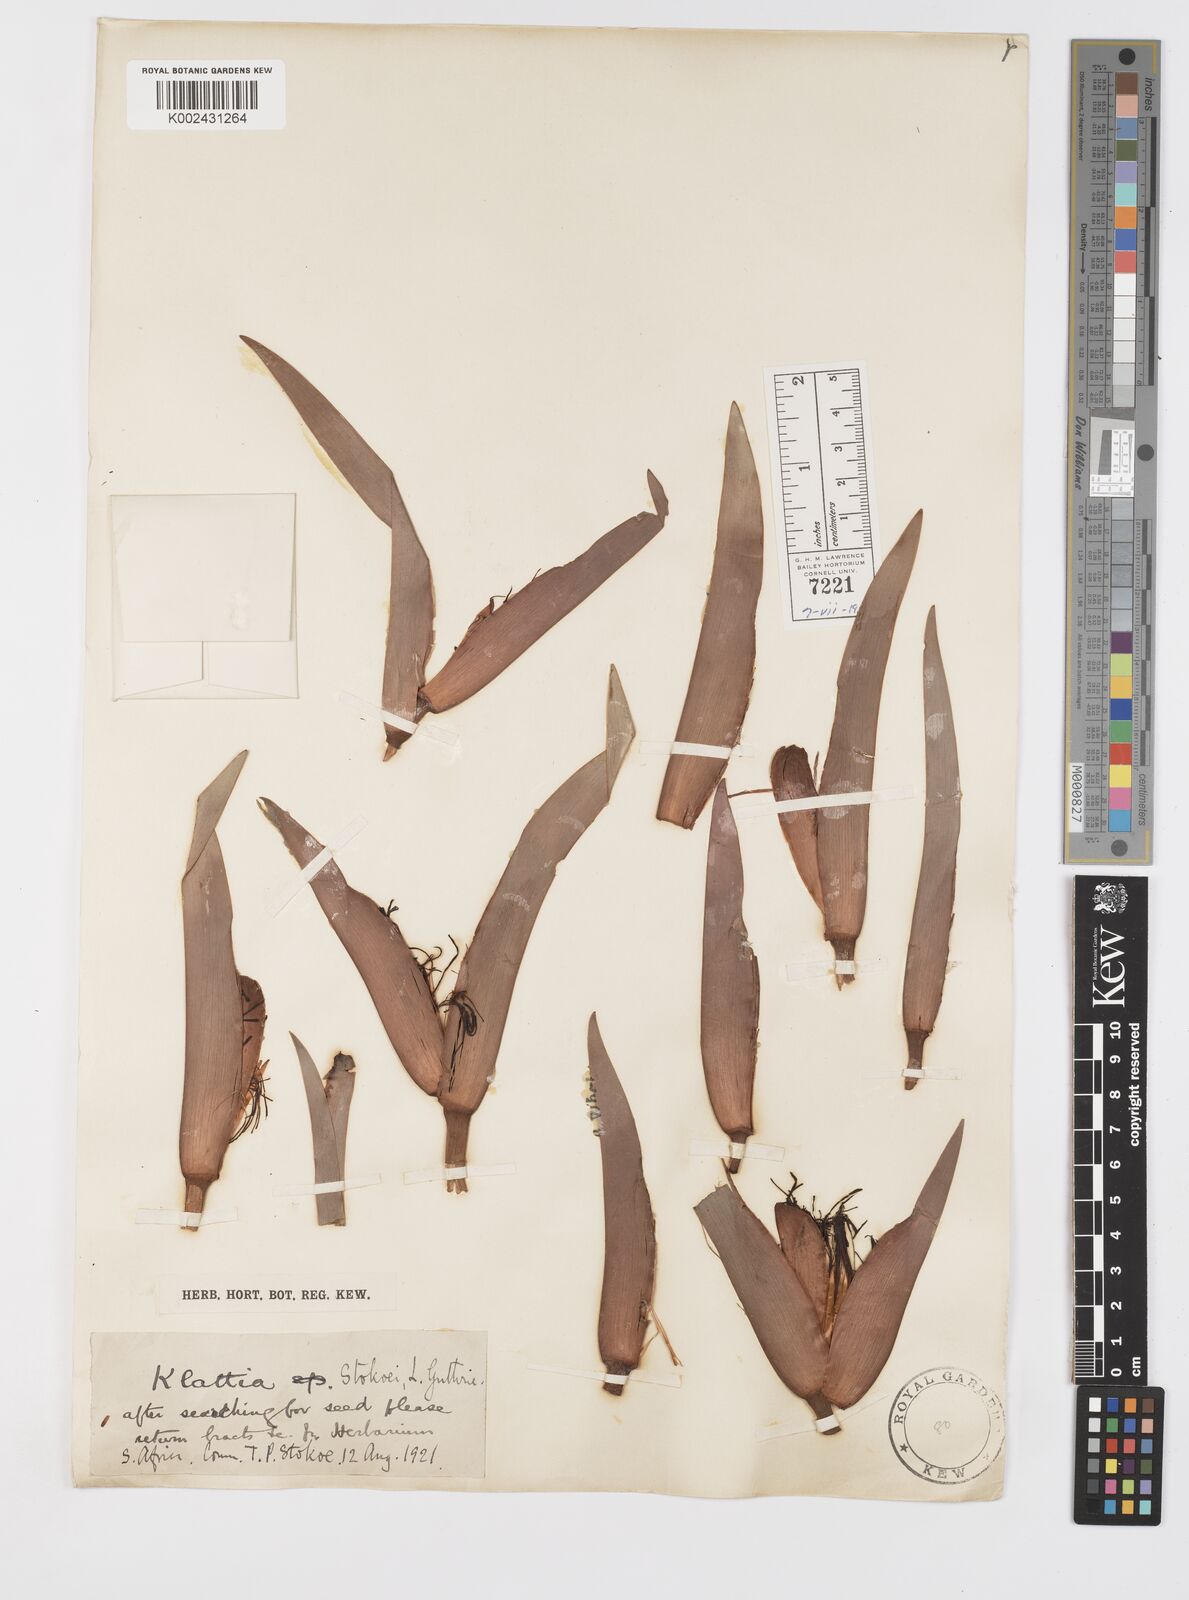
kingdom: Plantae
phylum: Tracheophyta
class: Liliopsida
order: Asparagales
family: Iridaceae
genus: Klattia
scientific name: Klattia stokoei
